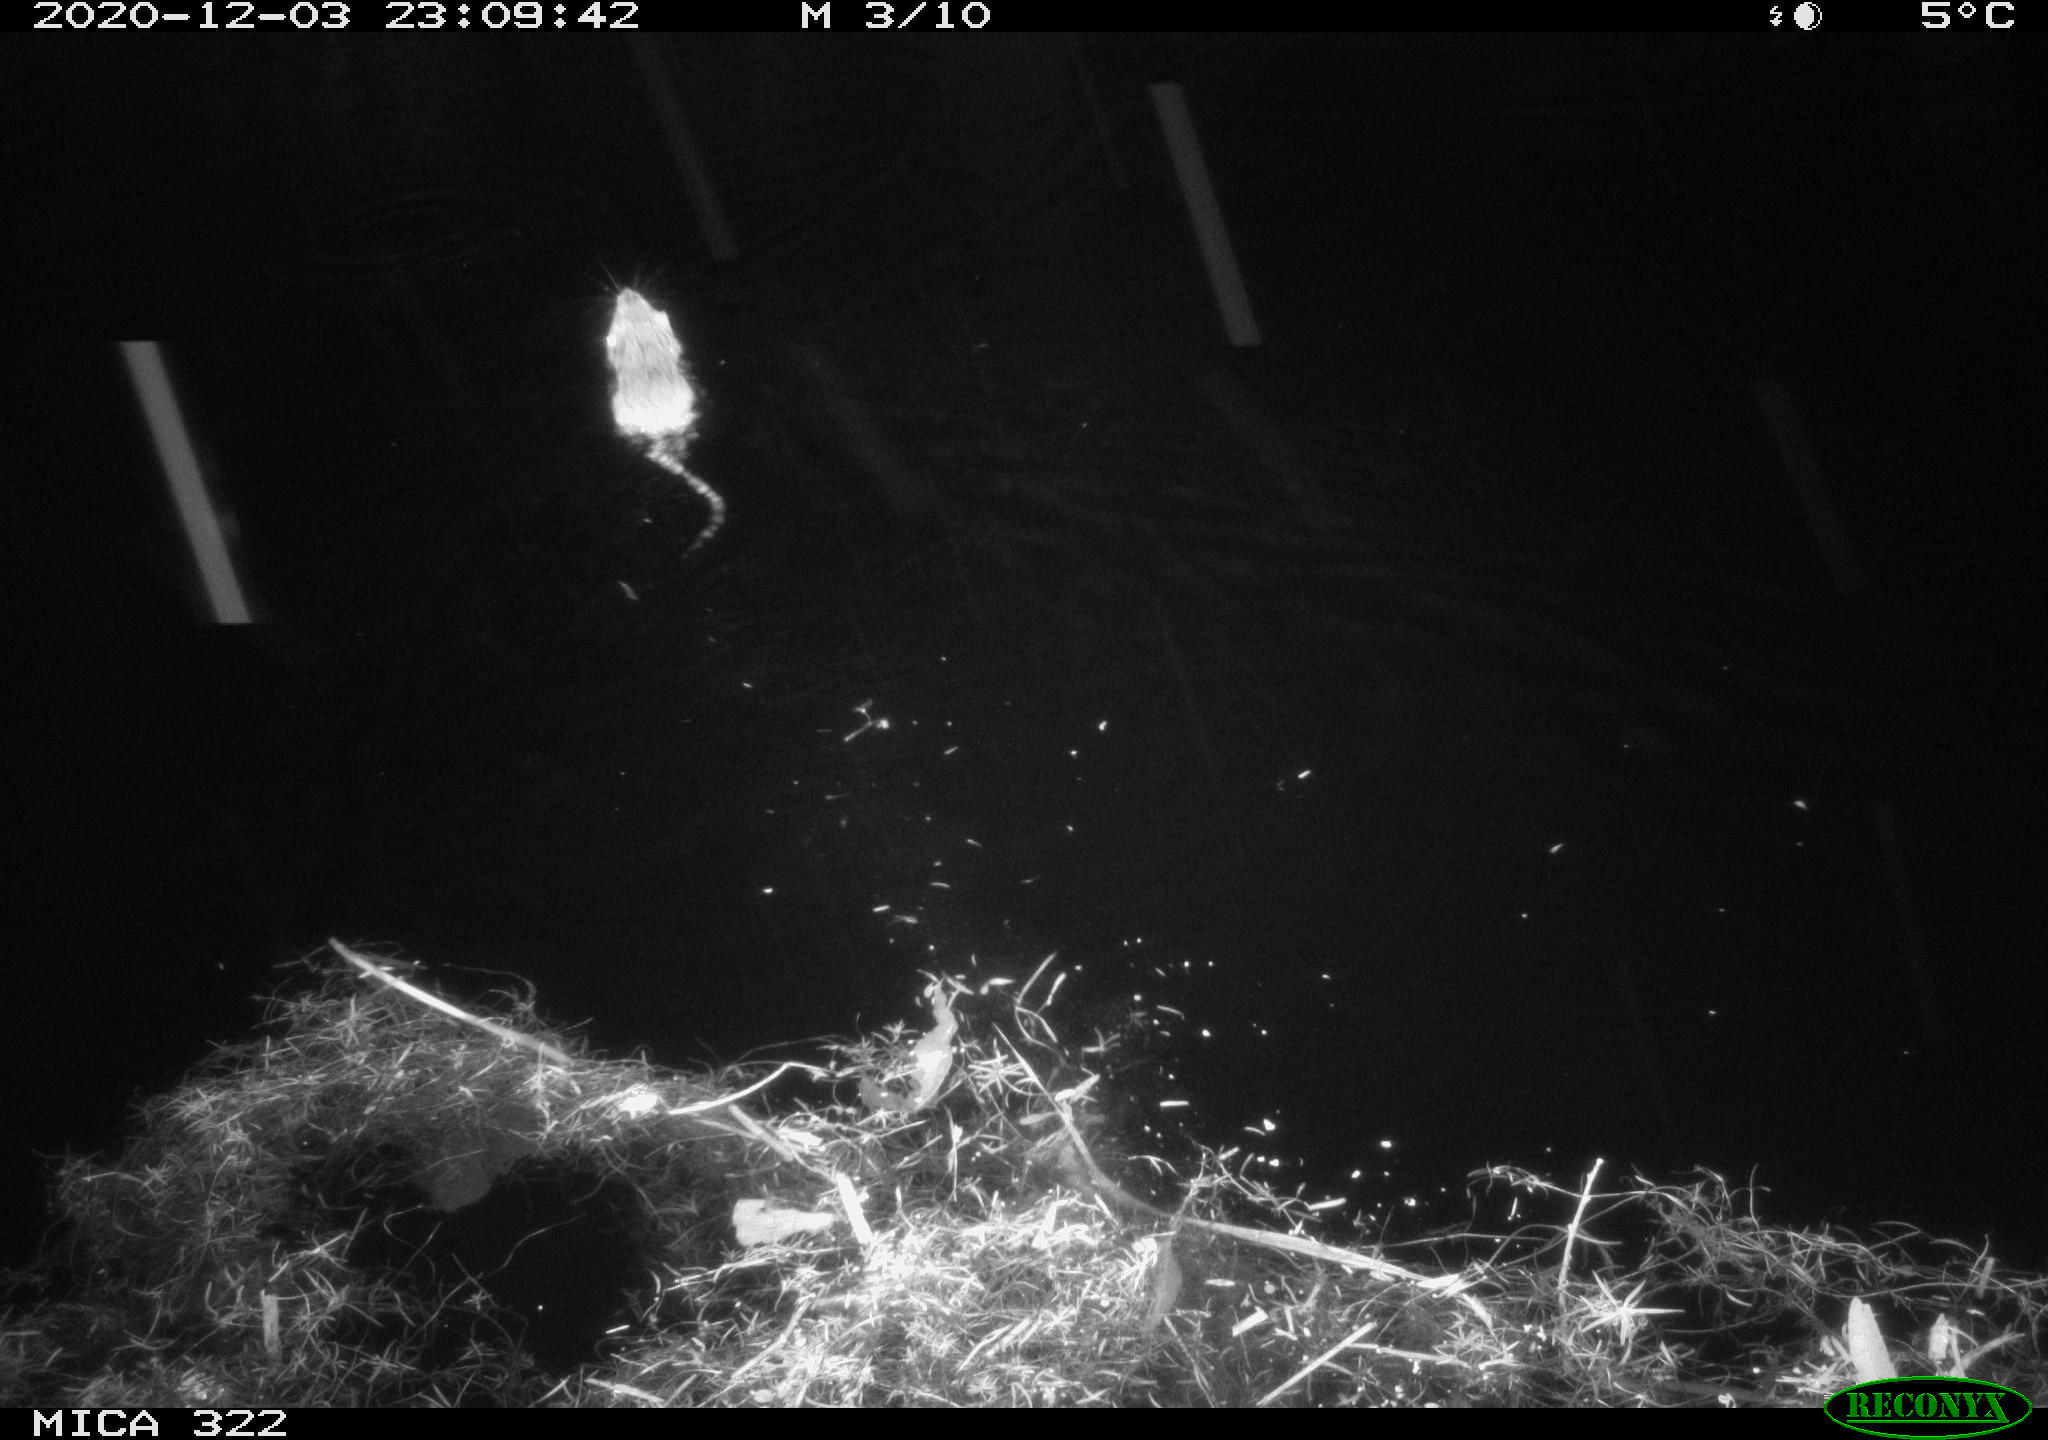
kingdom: Animalia
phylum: Chordata
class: Mammalia
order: Rodentia
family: Muridae
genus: Rattus
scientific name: Rattus norvegicus
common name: Brown rat
